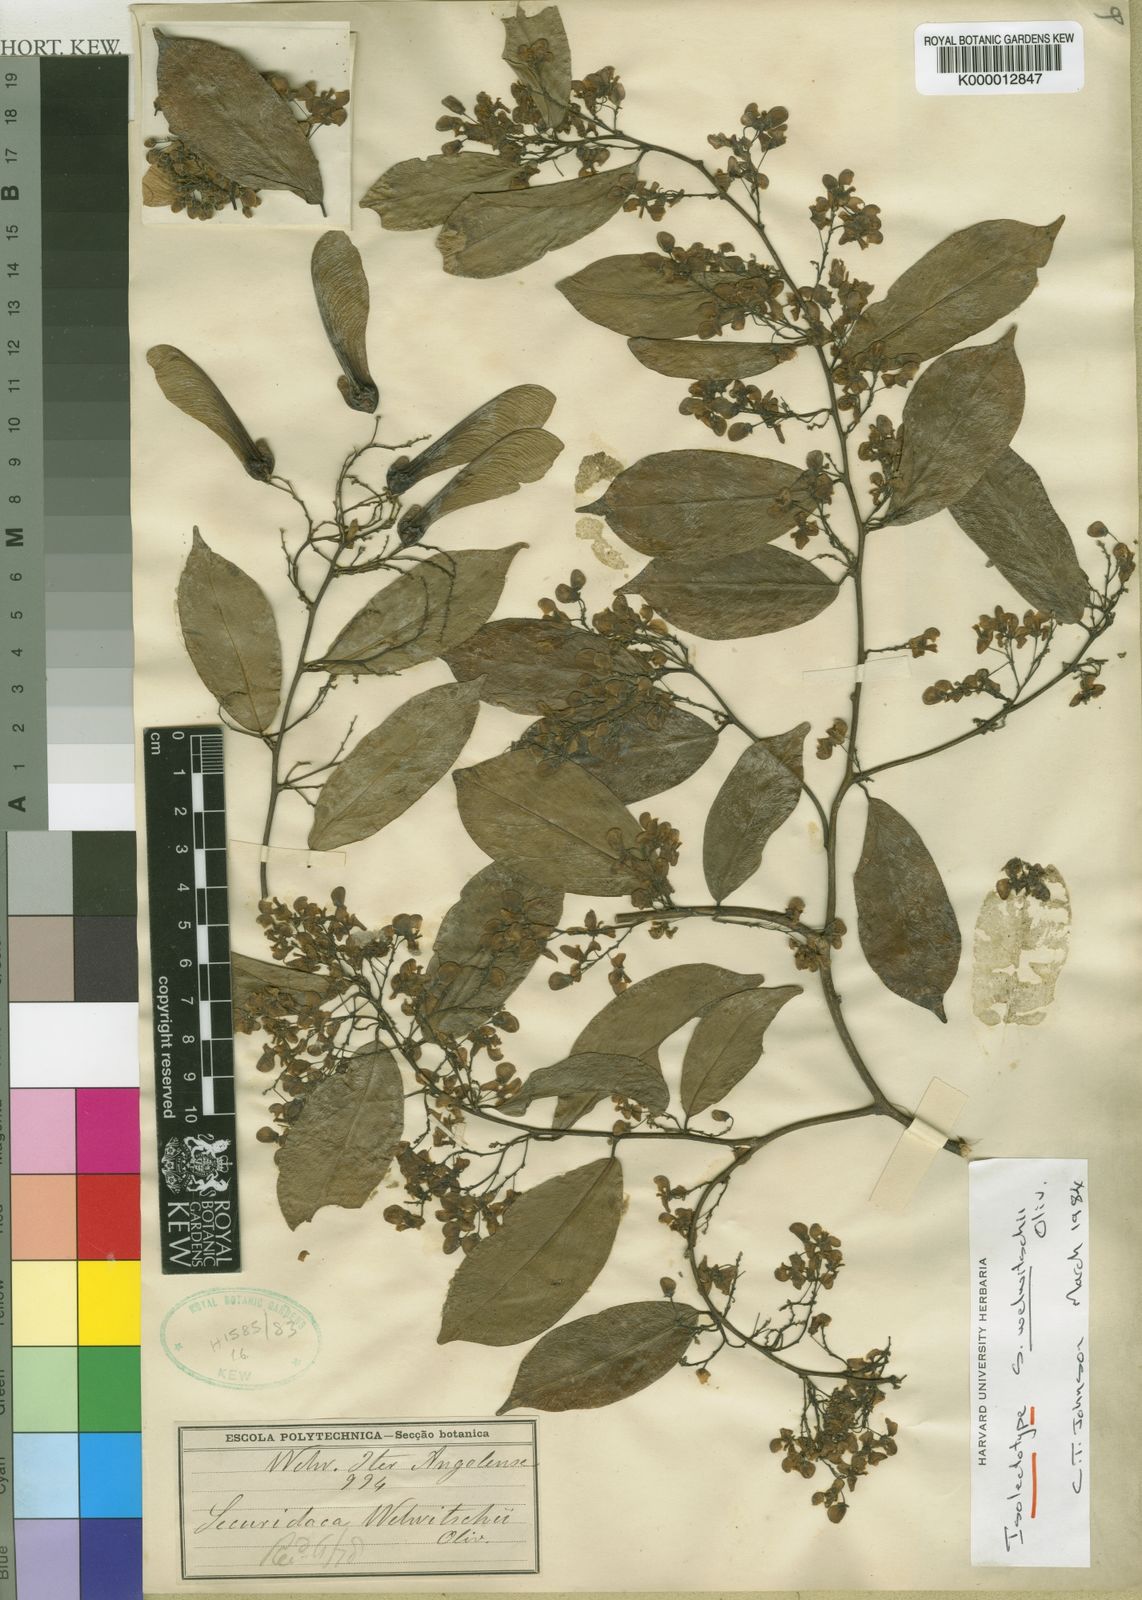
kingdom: Plantae
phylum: Tracheophyta
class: Magnoliopsida
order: Fabales
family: Polygalaceae
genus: Securidaca
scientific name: Securidaca welwitschii
